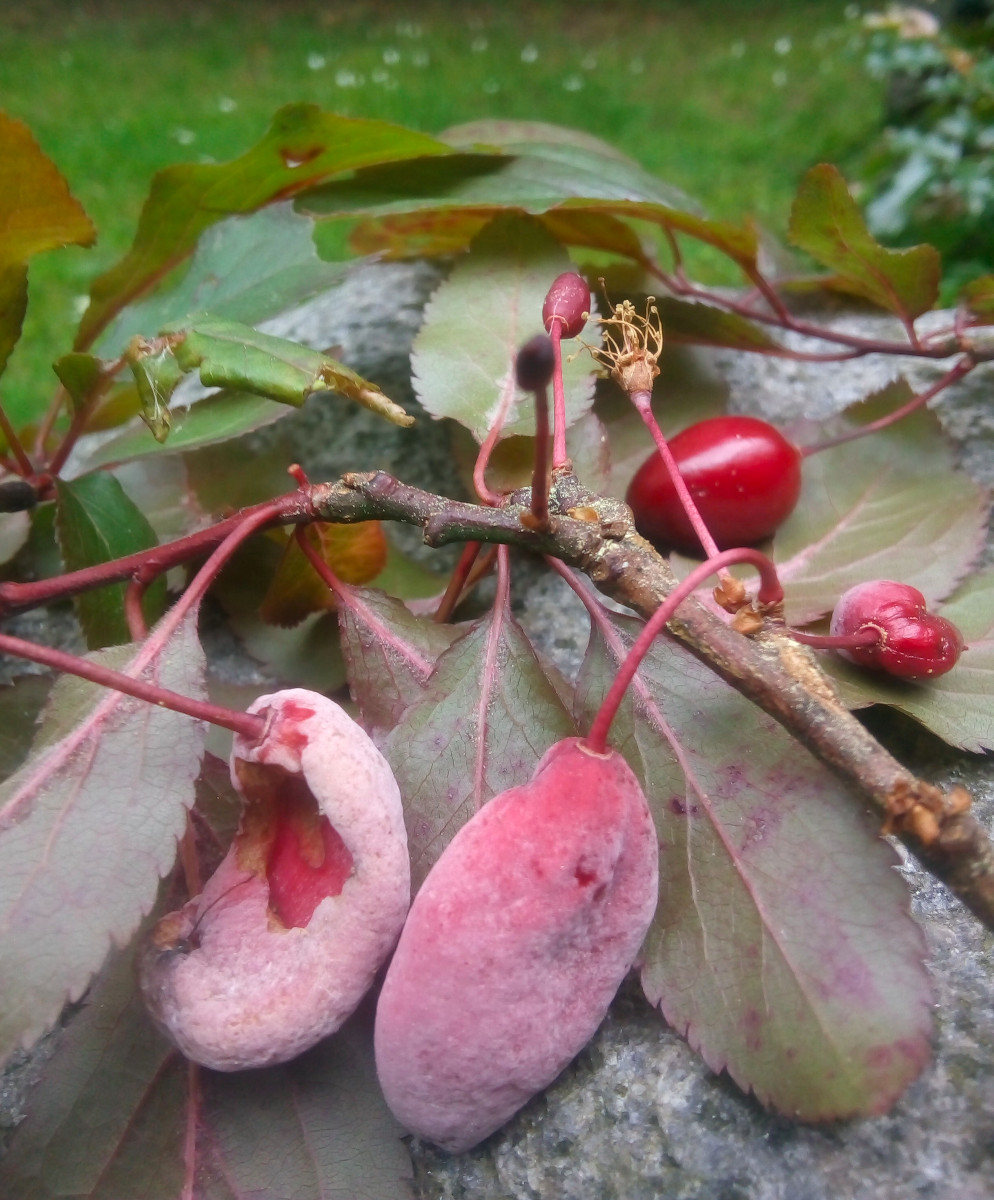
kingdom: Fungi
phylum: Ascomycota
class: Taphrinomycetes
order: Taphrinales
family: Taphrinaceae
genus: Taphrina
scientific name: Taphrina pruni
